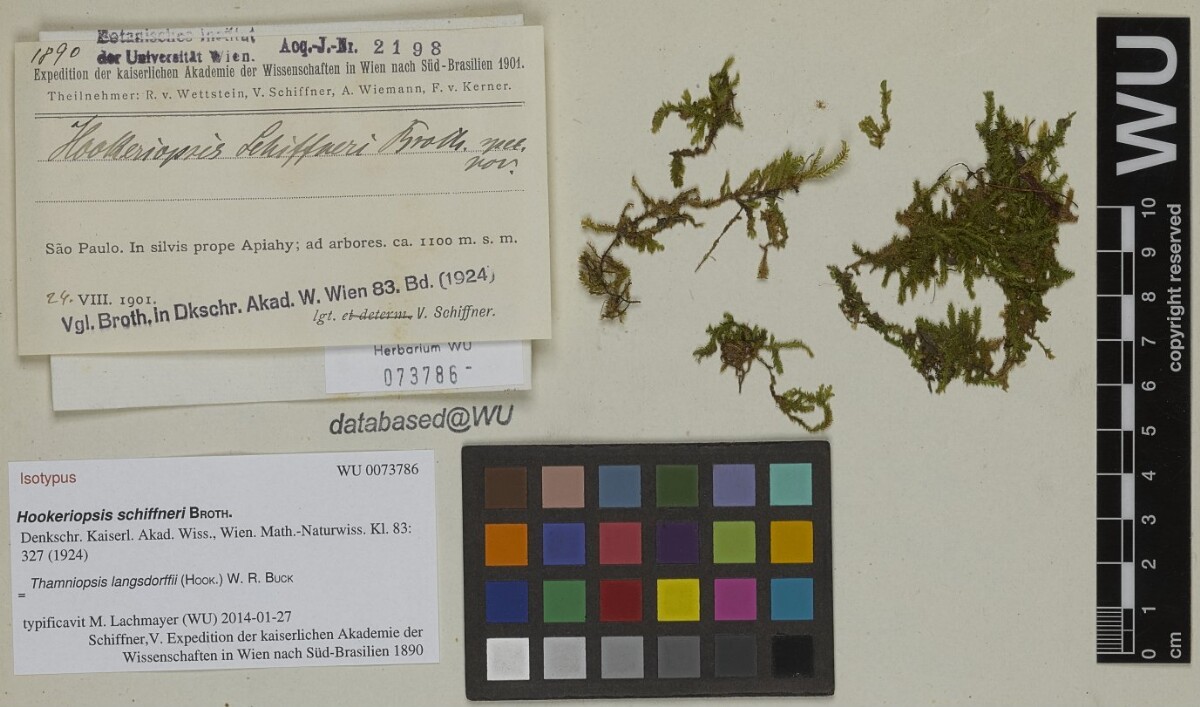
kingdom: Plantae
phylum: Bryophyta
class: Bryopsida
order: Hookeriales
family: Pilotrichaceae
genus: Thamniopsis
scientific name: Thamniopsis langsdorffii
